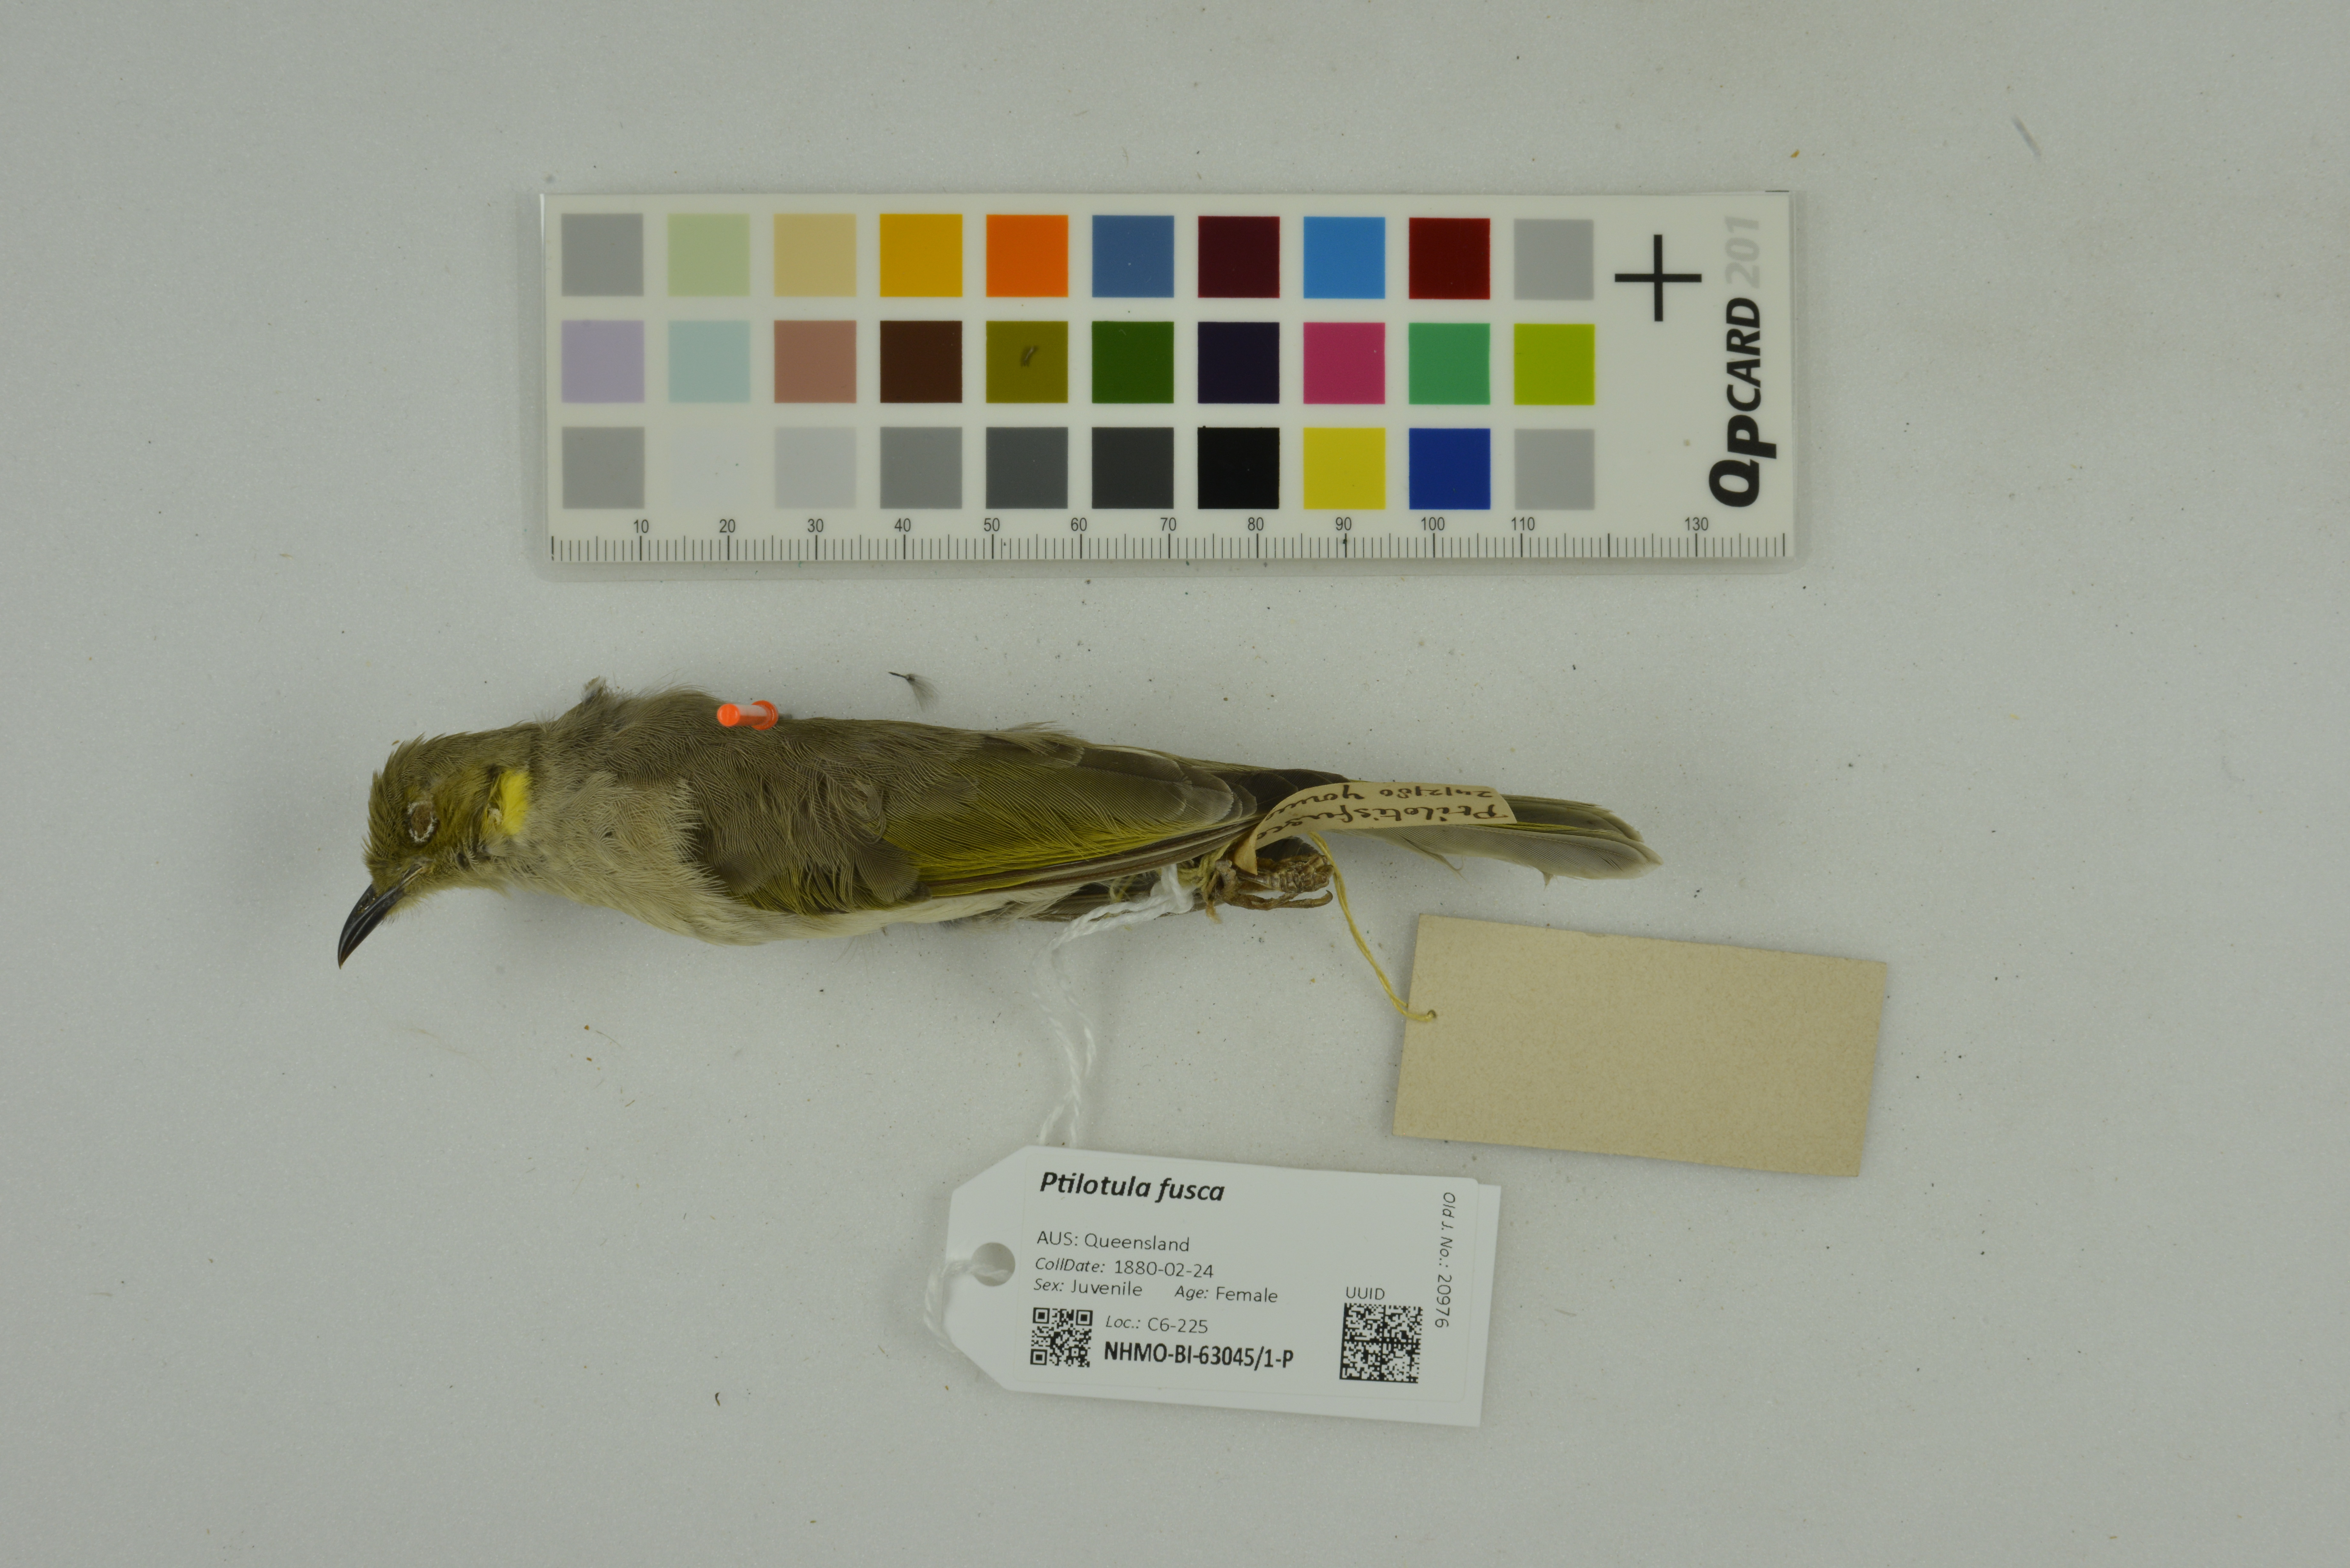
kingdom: Animalia
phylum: Chordata
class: Aves
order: Passeriformes
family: Meliphagidae
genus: Ptilotula
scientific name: Ptilotula fusca
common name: Fuscous honeyeater
